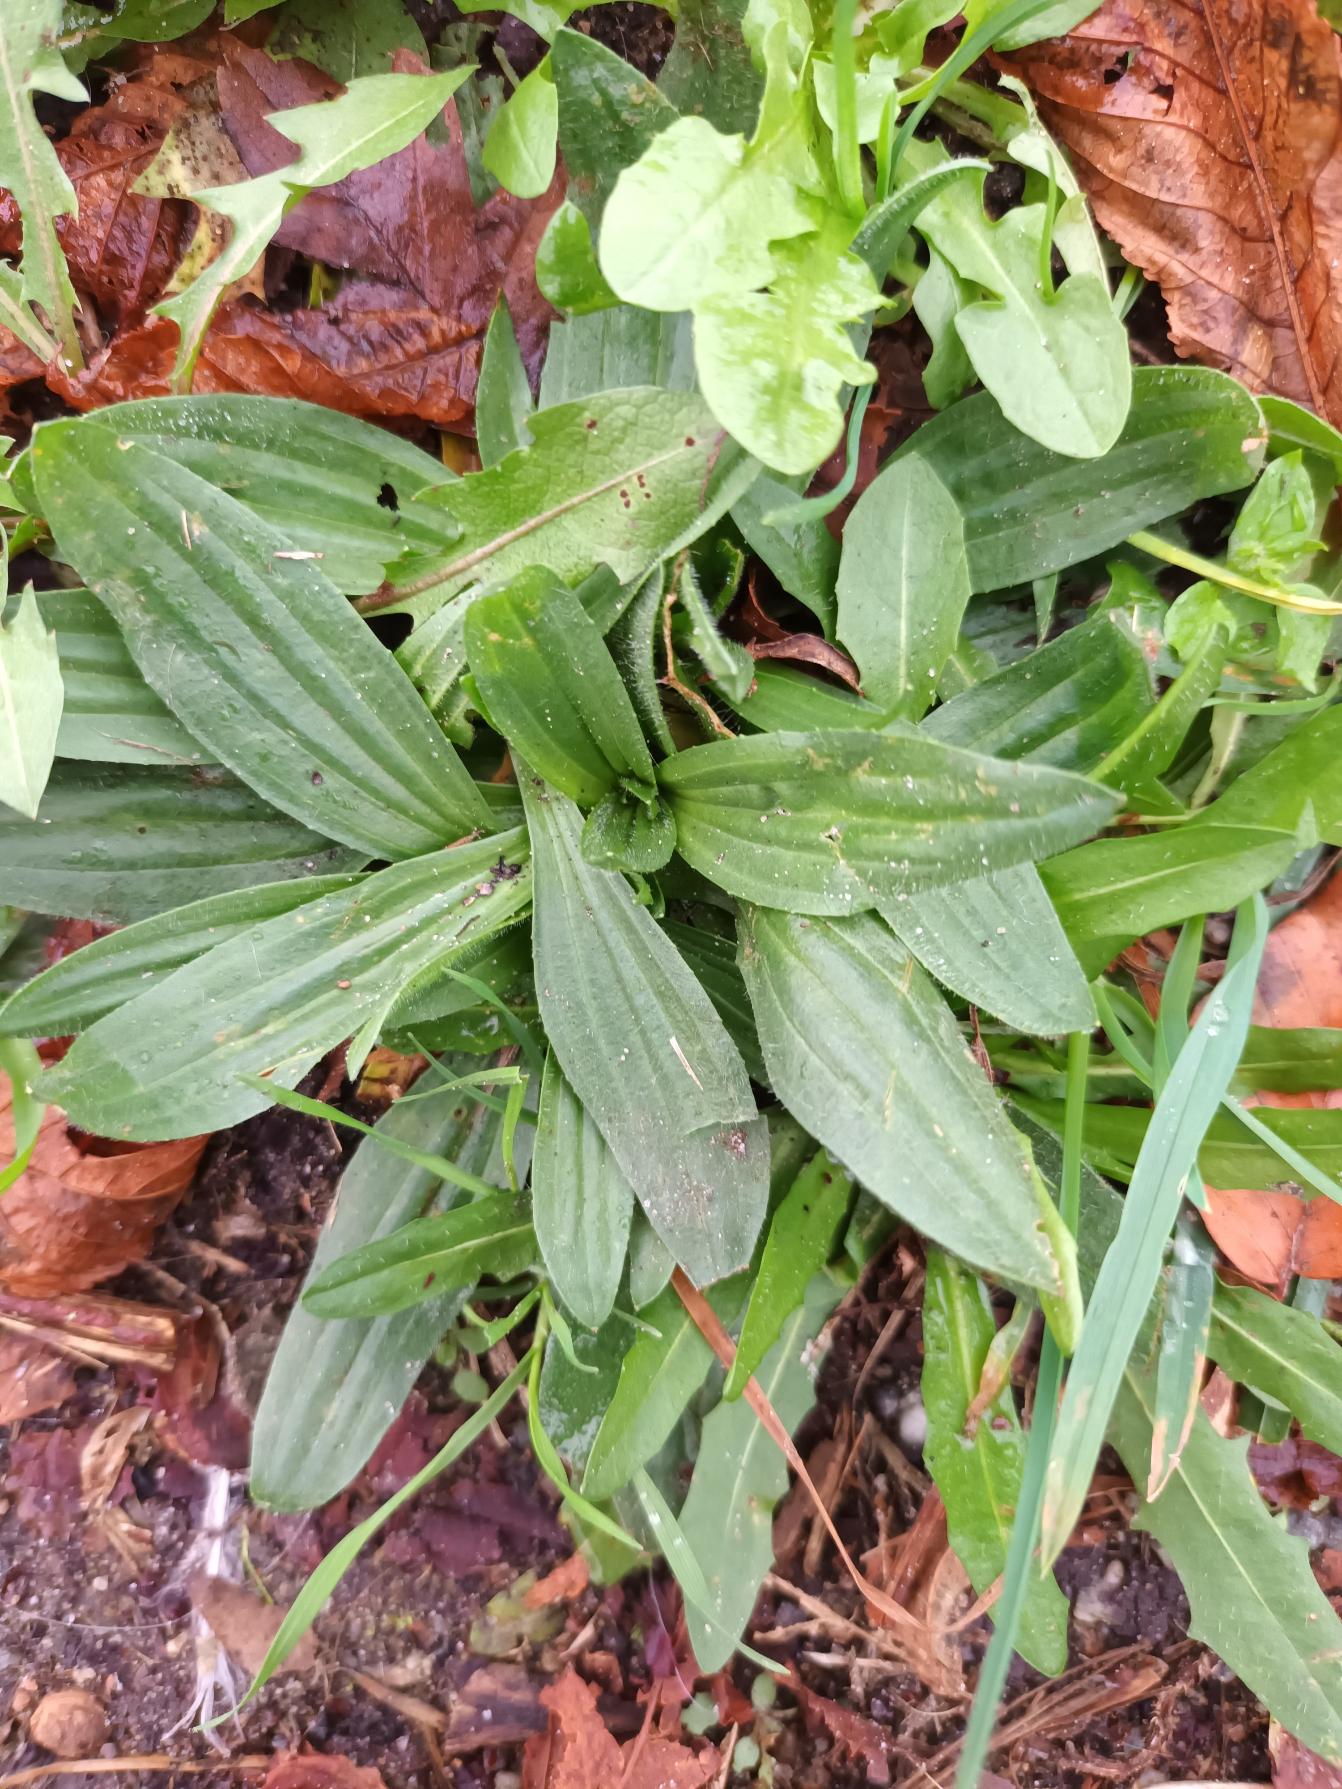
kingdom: Plantae
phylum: Tracheophyta
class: Magnoliopsida
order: Lamiales
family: Plantaginaceae
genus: Plantago
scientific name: Plantago lanceolata
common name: Lancet-vejbred
